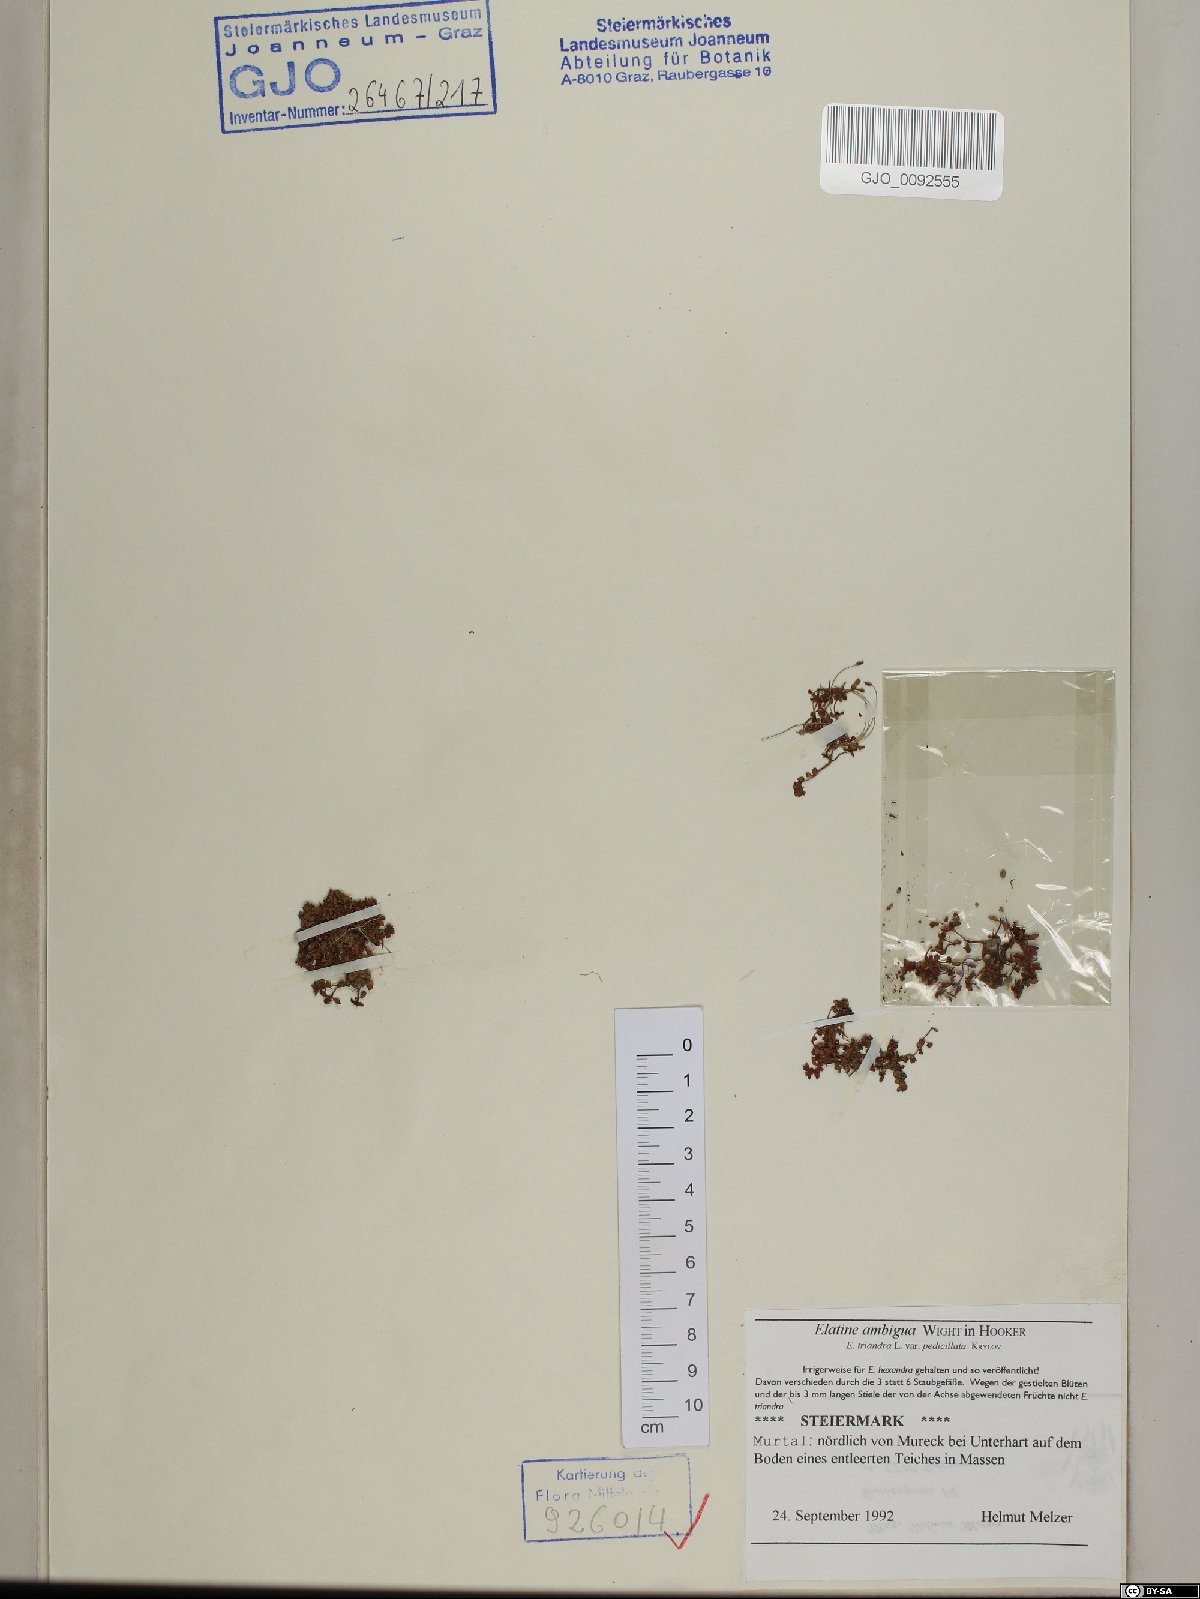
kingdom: Plantae
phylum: Tracheophyta
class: Magnoliopsida
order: Malpighiales
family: Elatinaceae
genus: Elatine
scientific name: Elatine ambigua
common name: Asian waterwort
